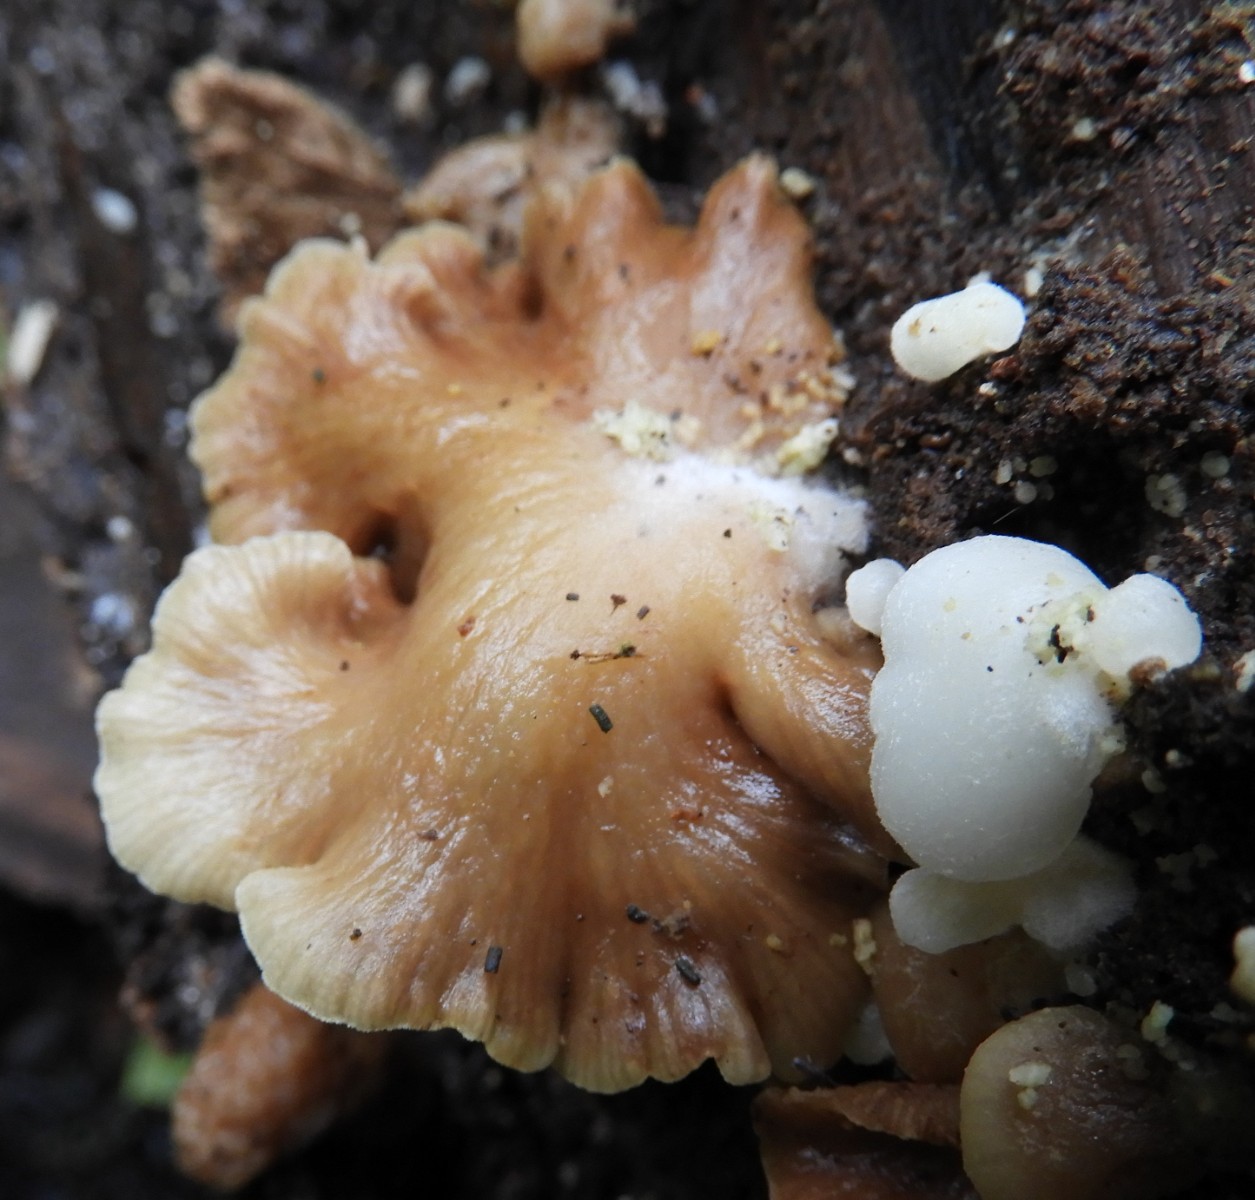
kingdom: Fungi
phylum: Basidiomycota
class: Agaricomycetes
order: Agaricales
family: Crepidotaceae
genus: Crepidotus
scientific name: Crepidotus mollis
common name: blød muslingesvamp
